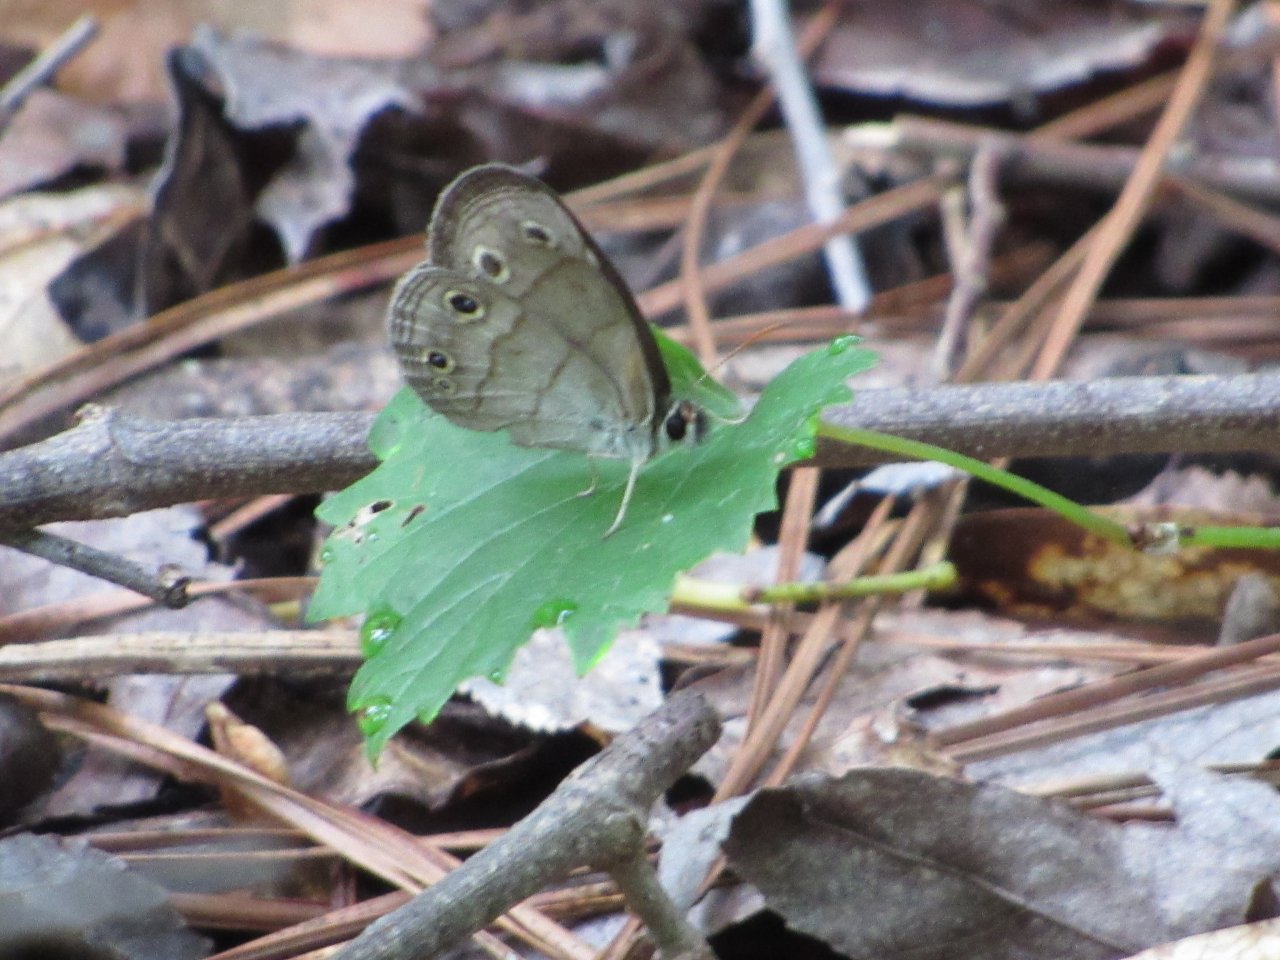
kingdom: Animalia
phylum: Arthropoda
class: Insecta
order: Lepidoptera
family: Nymphalidae
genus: Euptychia
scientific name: Euptychia cymela
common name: Little Wood Satyr
